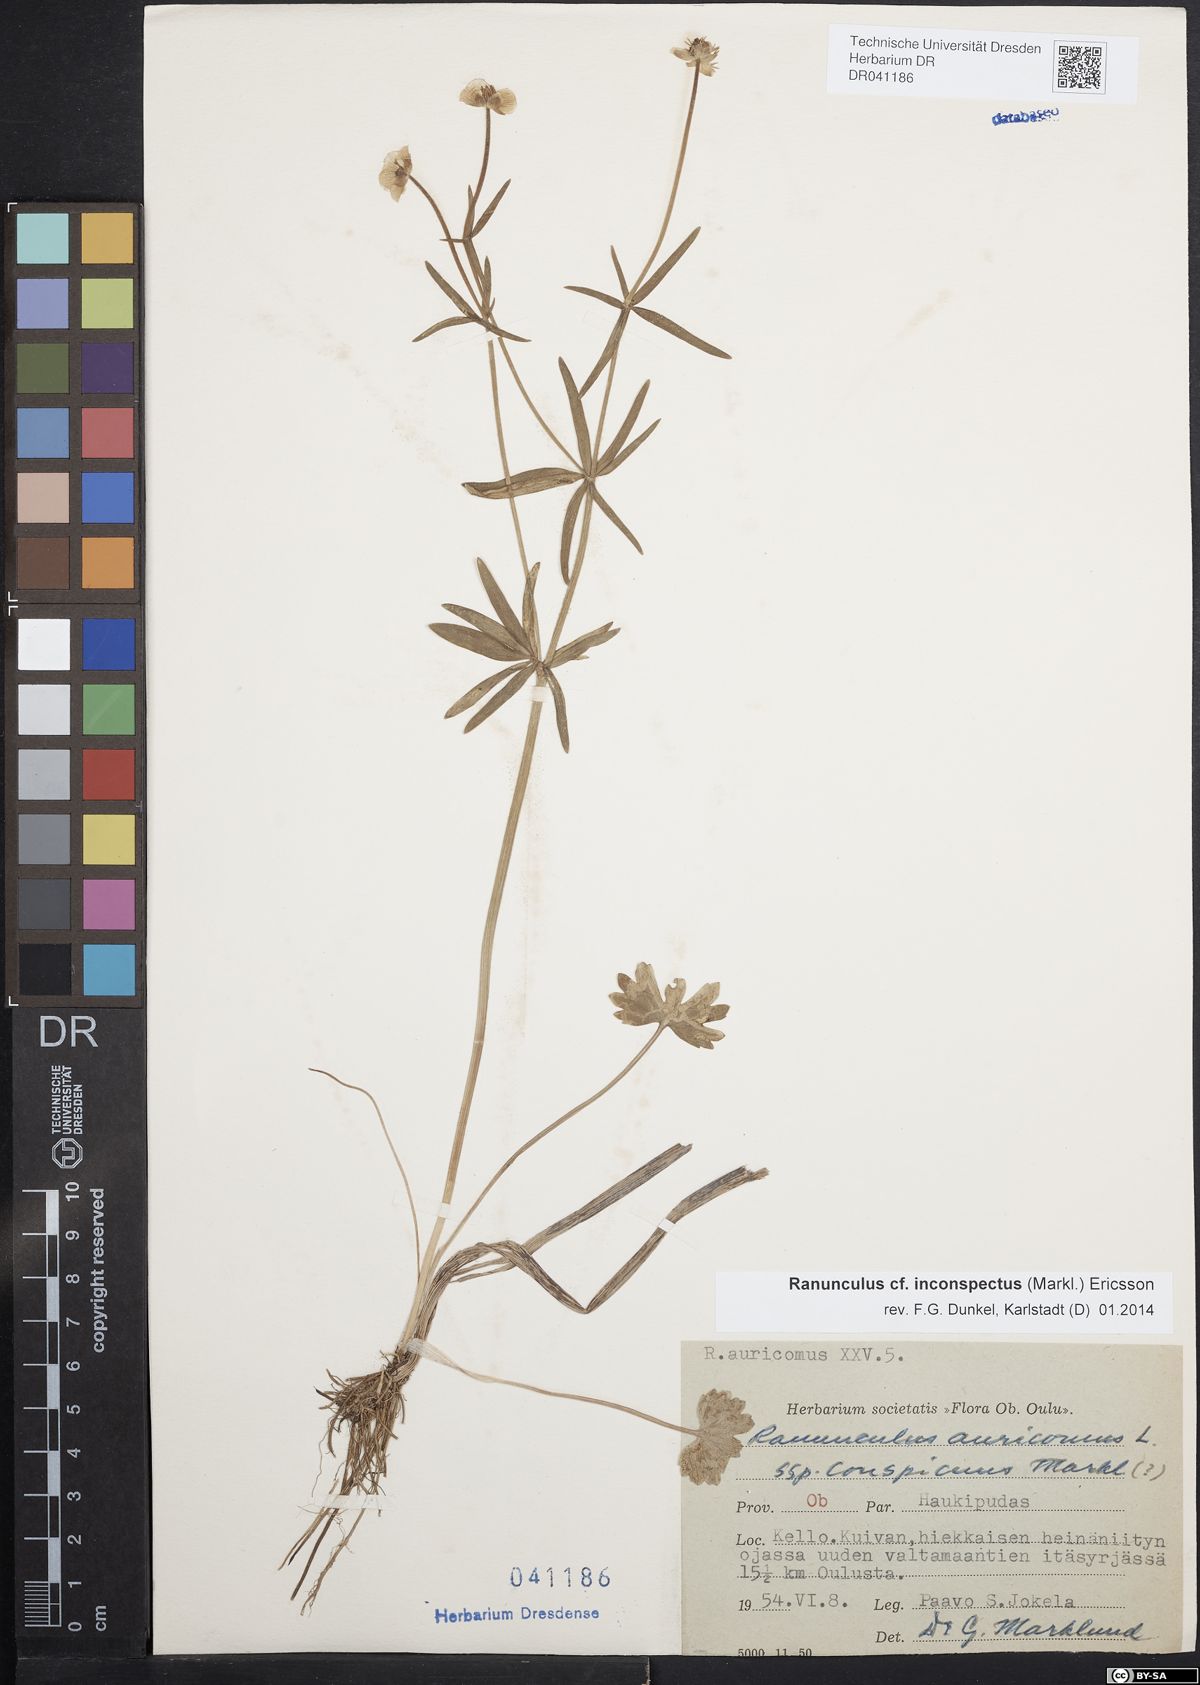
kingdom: Plantae
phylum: Tracheophyta
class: Magnoliopsida
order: Ranunculales
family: Ranunculaceae
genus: Ranunculus
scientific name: Ranunculus inconspectus
